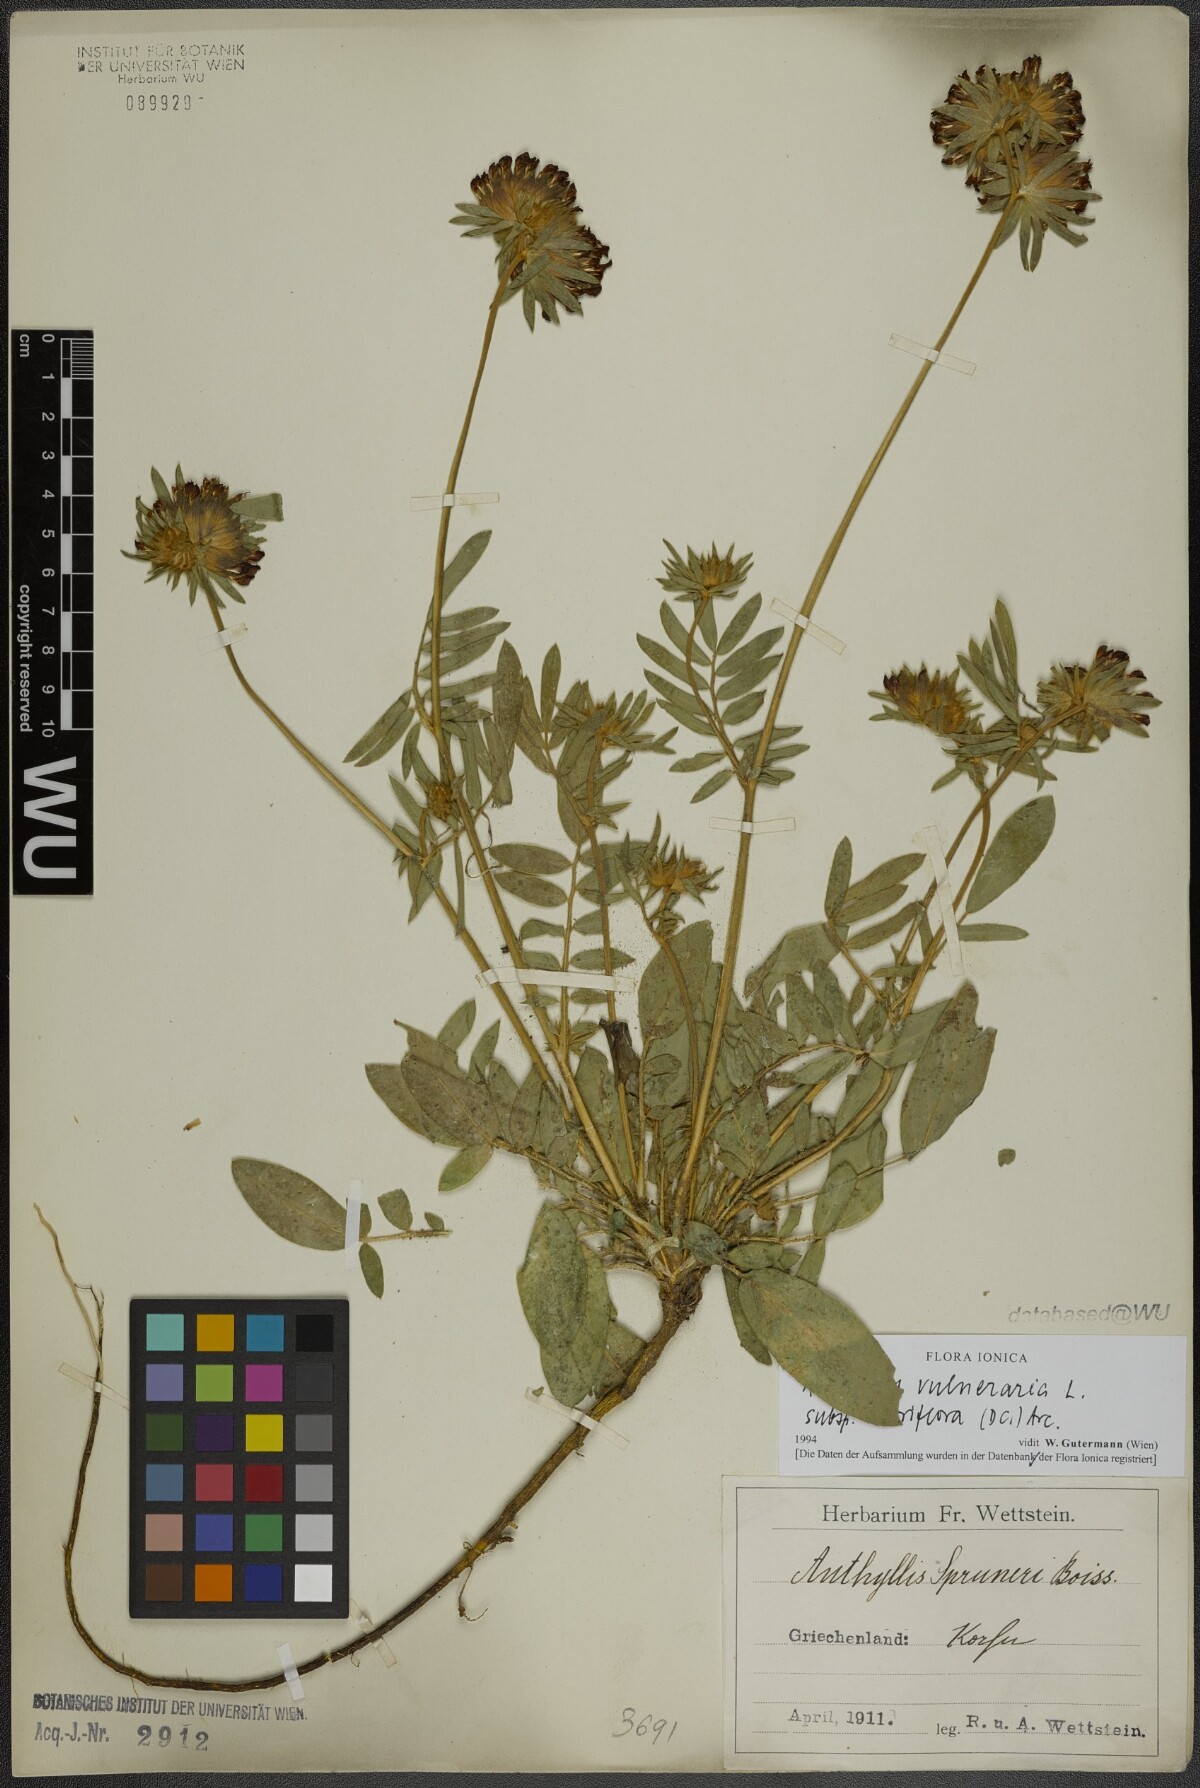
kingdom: Plantae
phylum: Tracheophyta
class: Magnoliopsida
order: Fabales
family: Fabaceae
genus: Anthyllis
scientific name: Anthyllis vulneraria
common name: Kidney vetch
